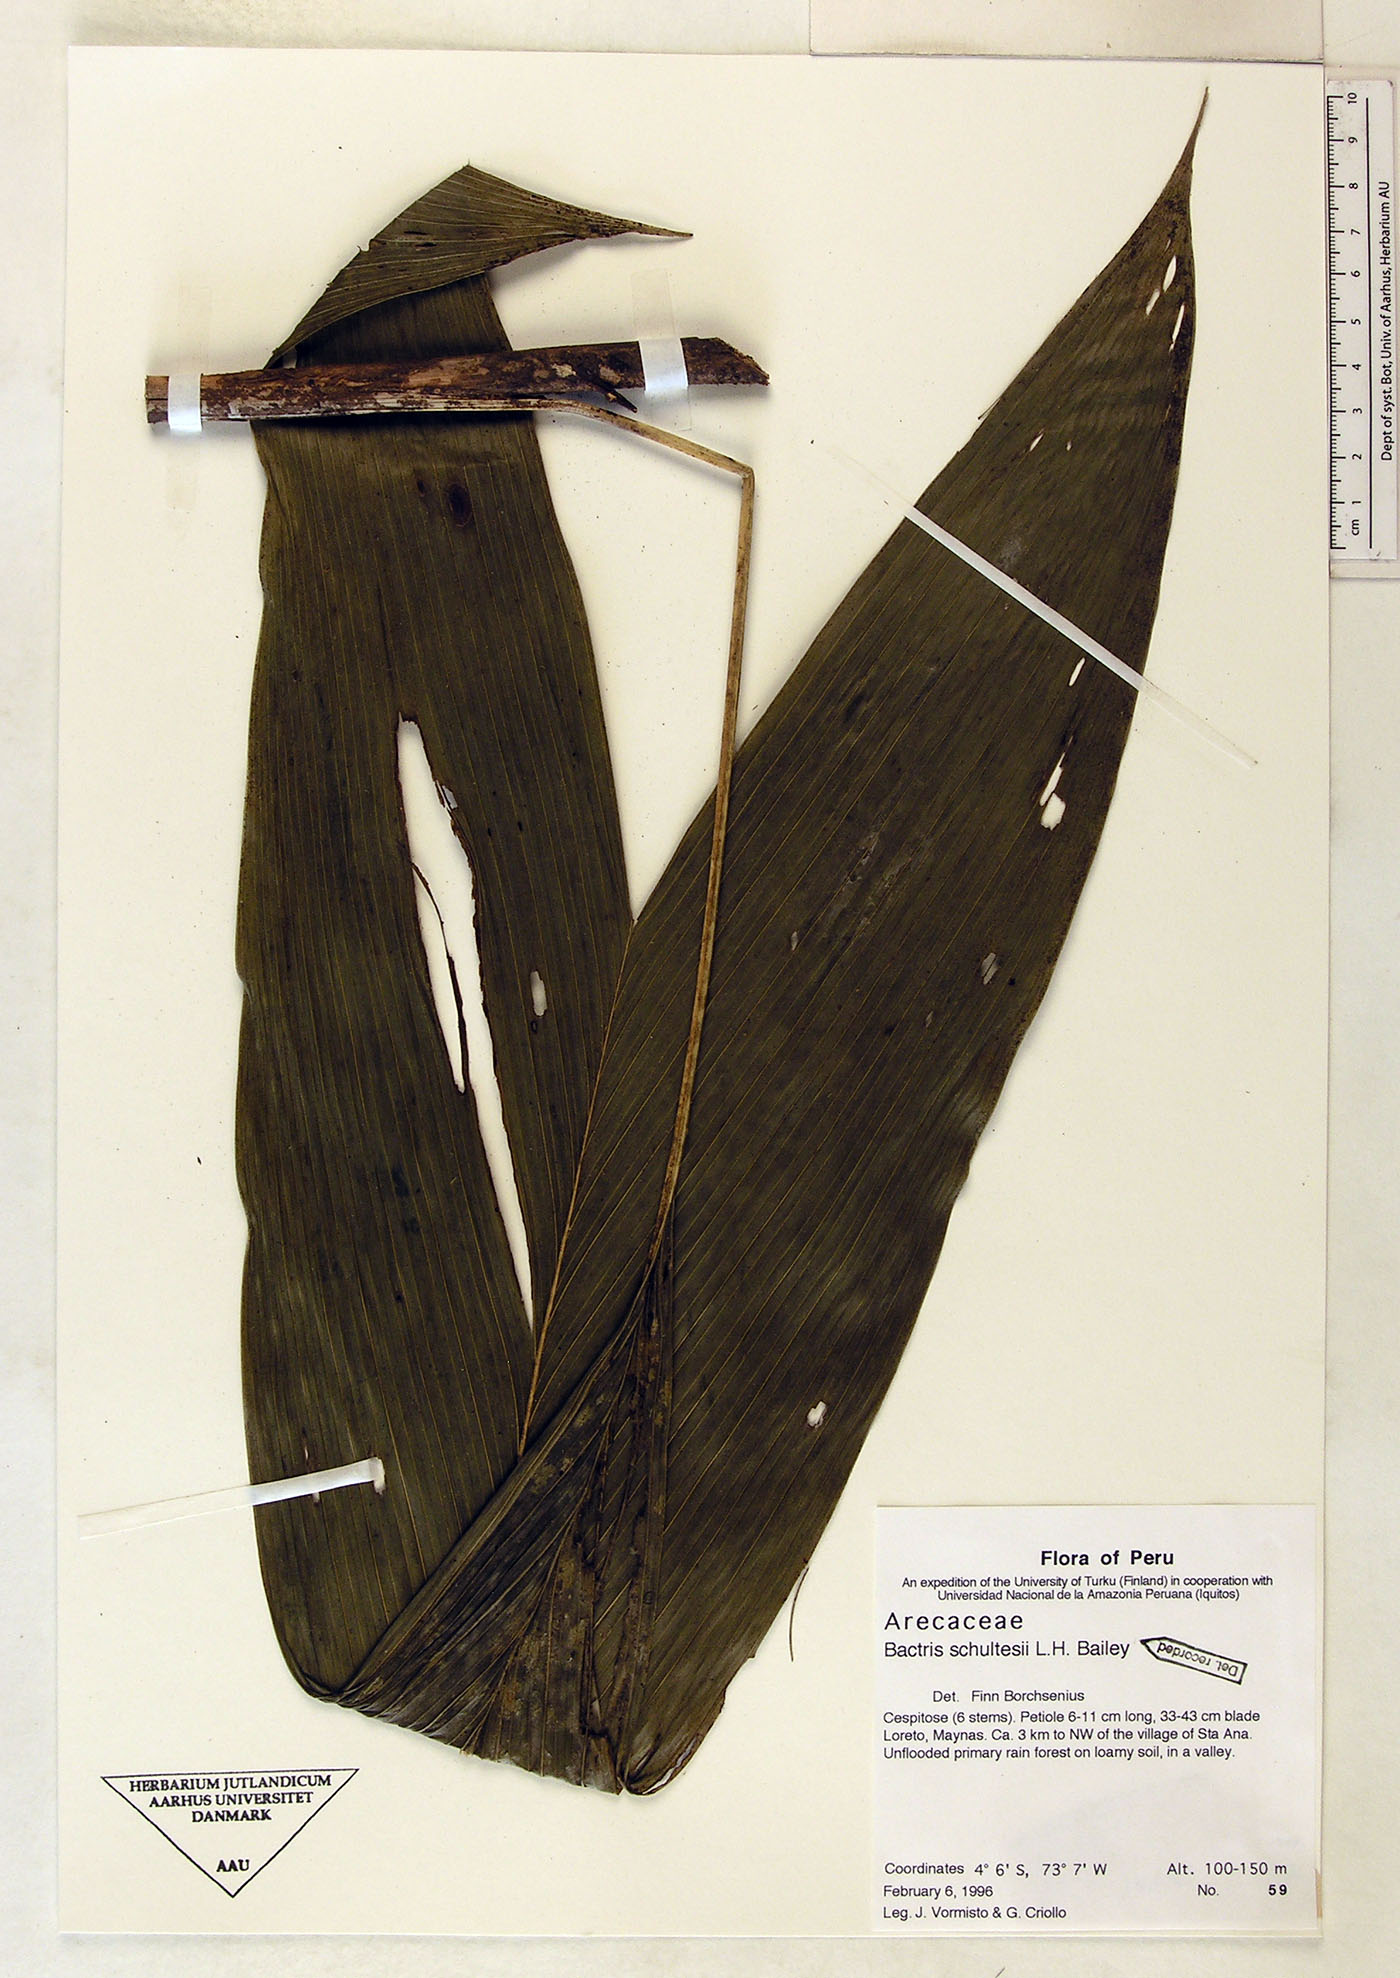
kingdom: Plantae
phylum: Tracheophyta
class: Liliopsida
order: Arecales
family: Arecaceae
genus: Bactris
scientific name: Bactris schultesii
